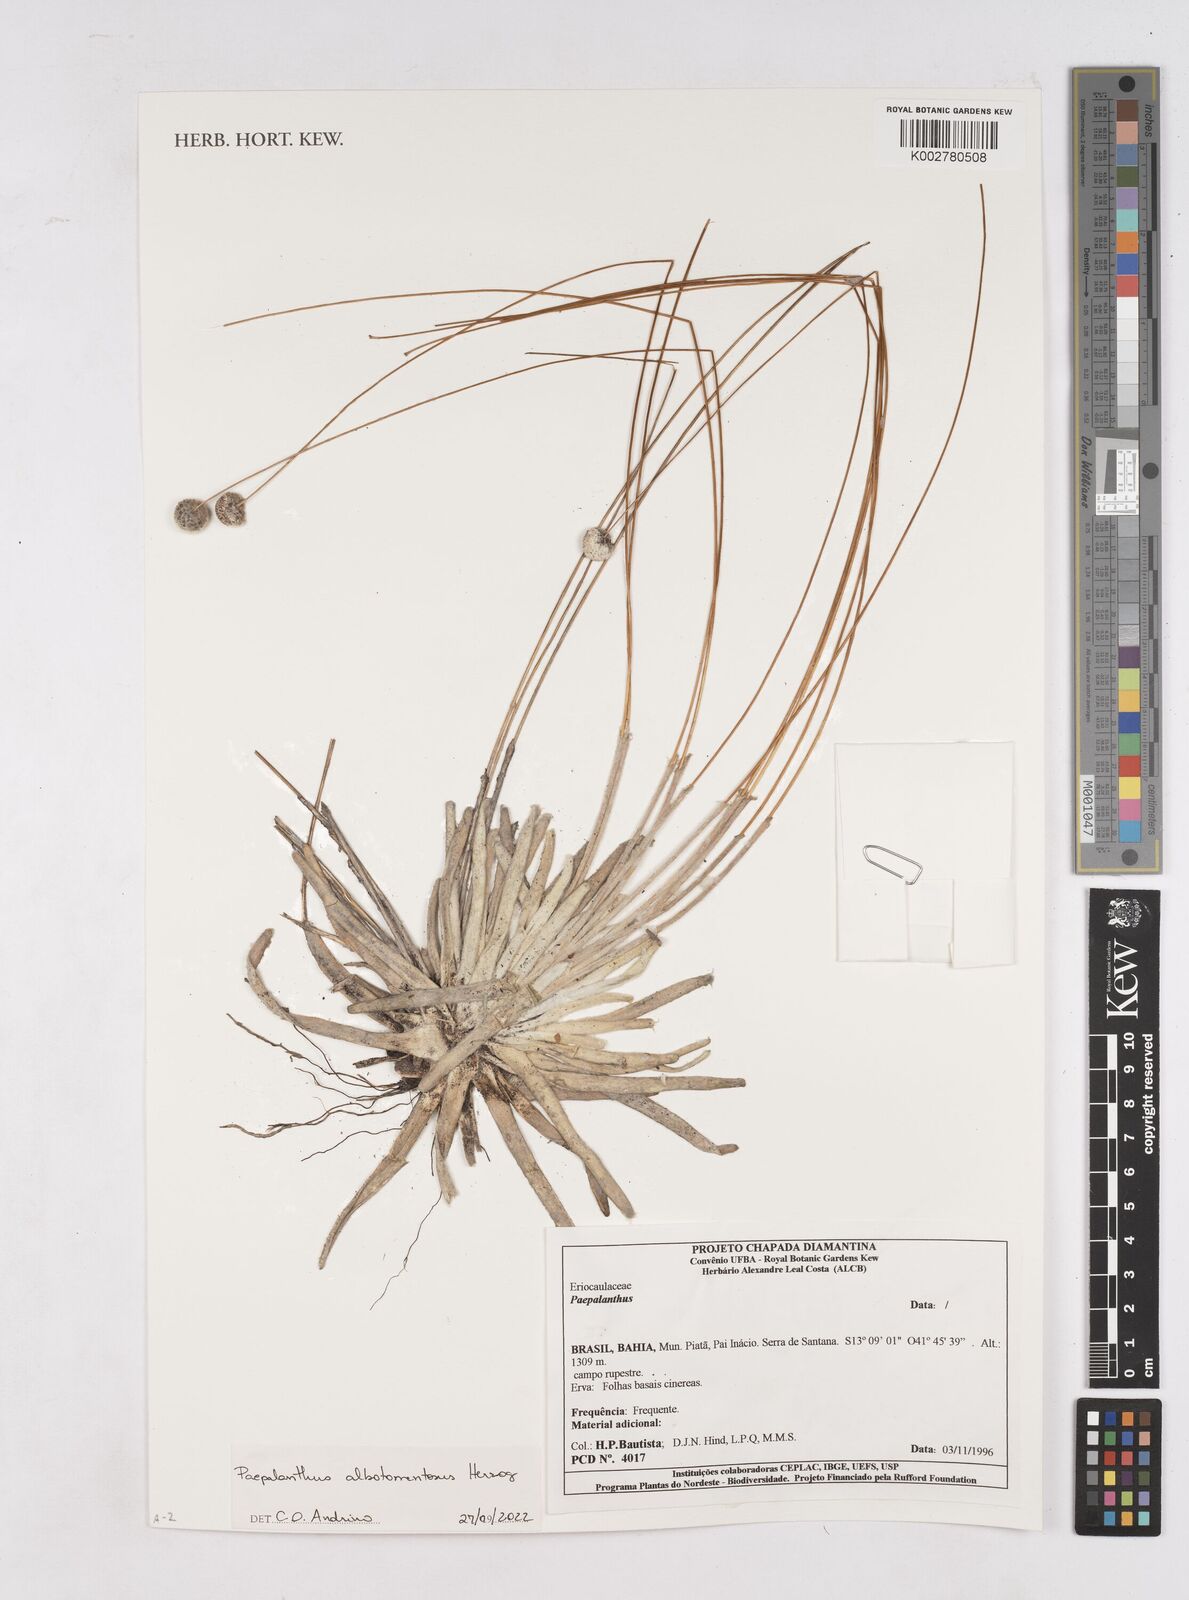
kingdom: Plantae
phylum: Tracheophyta
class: Liliopsida
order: Poales
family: Eriocaulaceae
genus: Paepalanthus
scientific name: Paepalanthus albotomentosus
